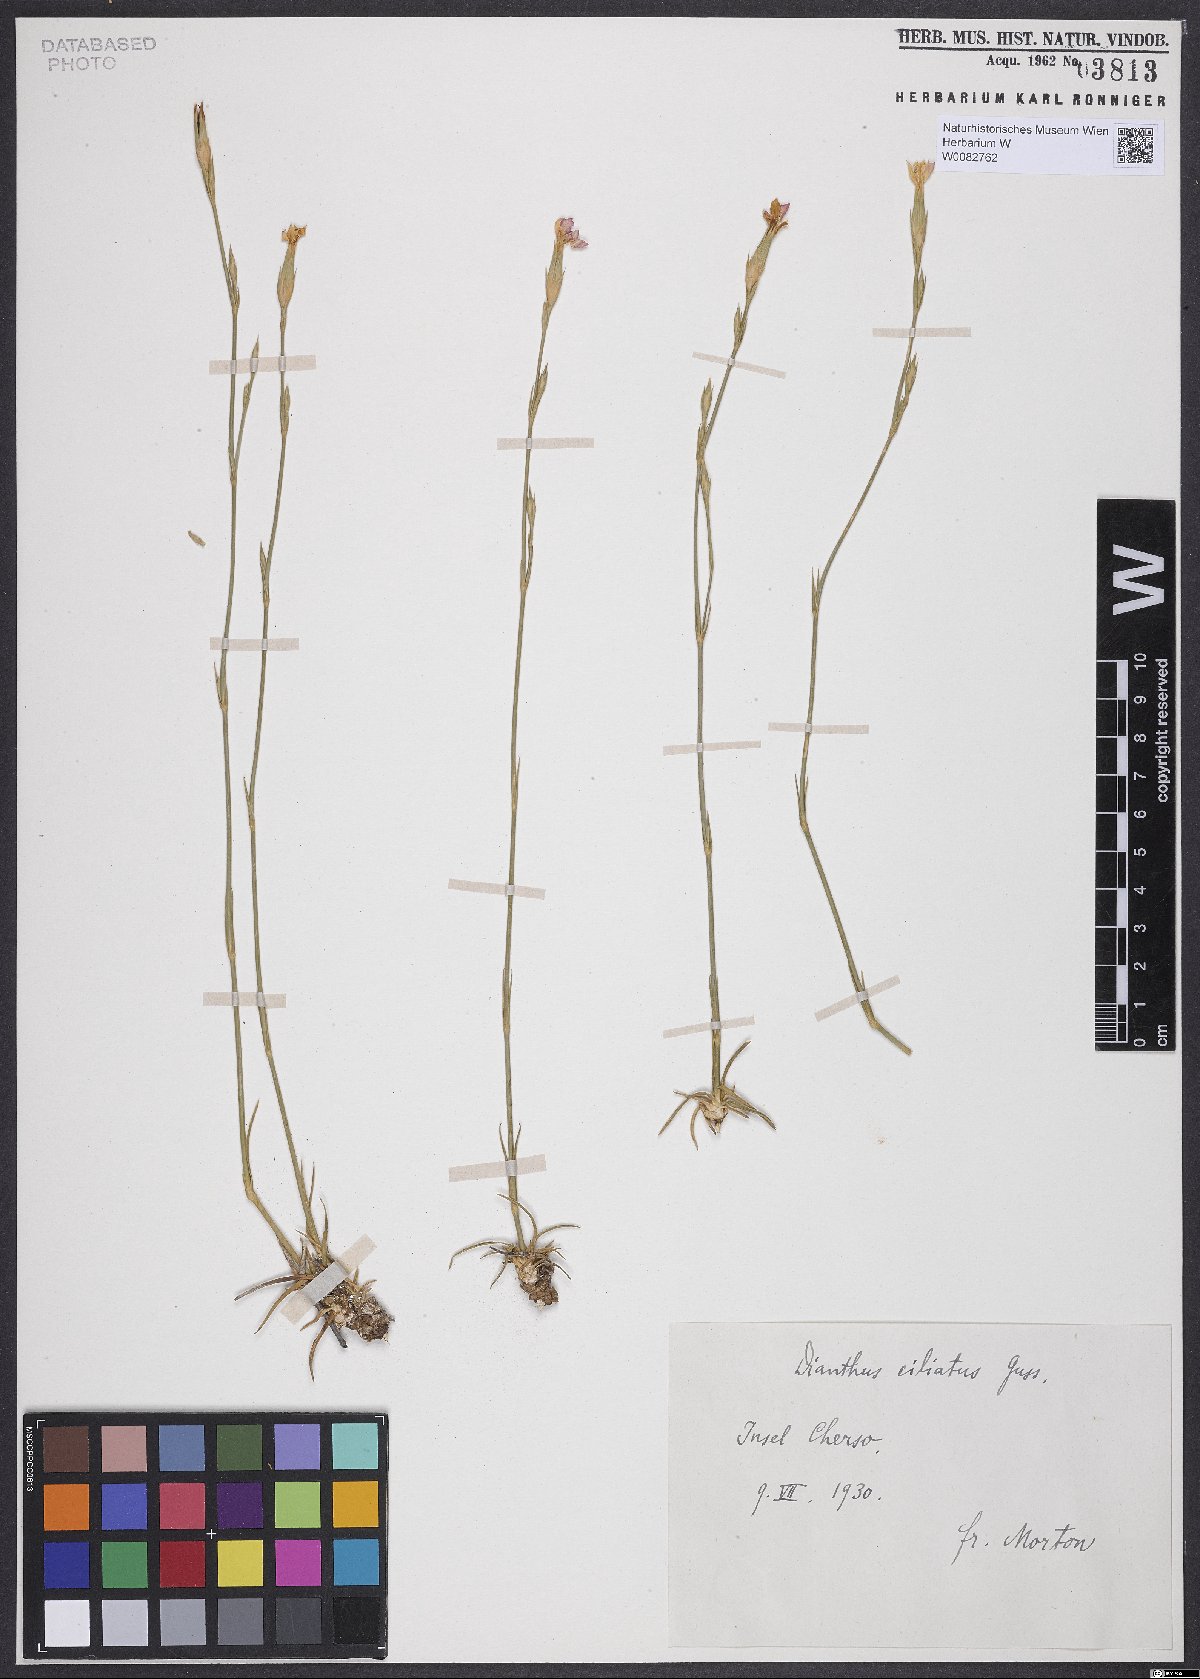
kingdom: Plantae
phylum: Tracheophyta
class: Magnoliopsida
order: Caryophyllales
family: Caryophyllaceae
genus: Dianthus
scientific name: Dianthus ciliatus
